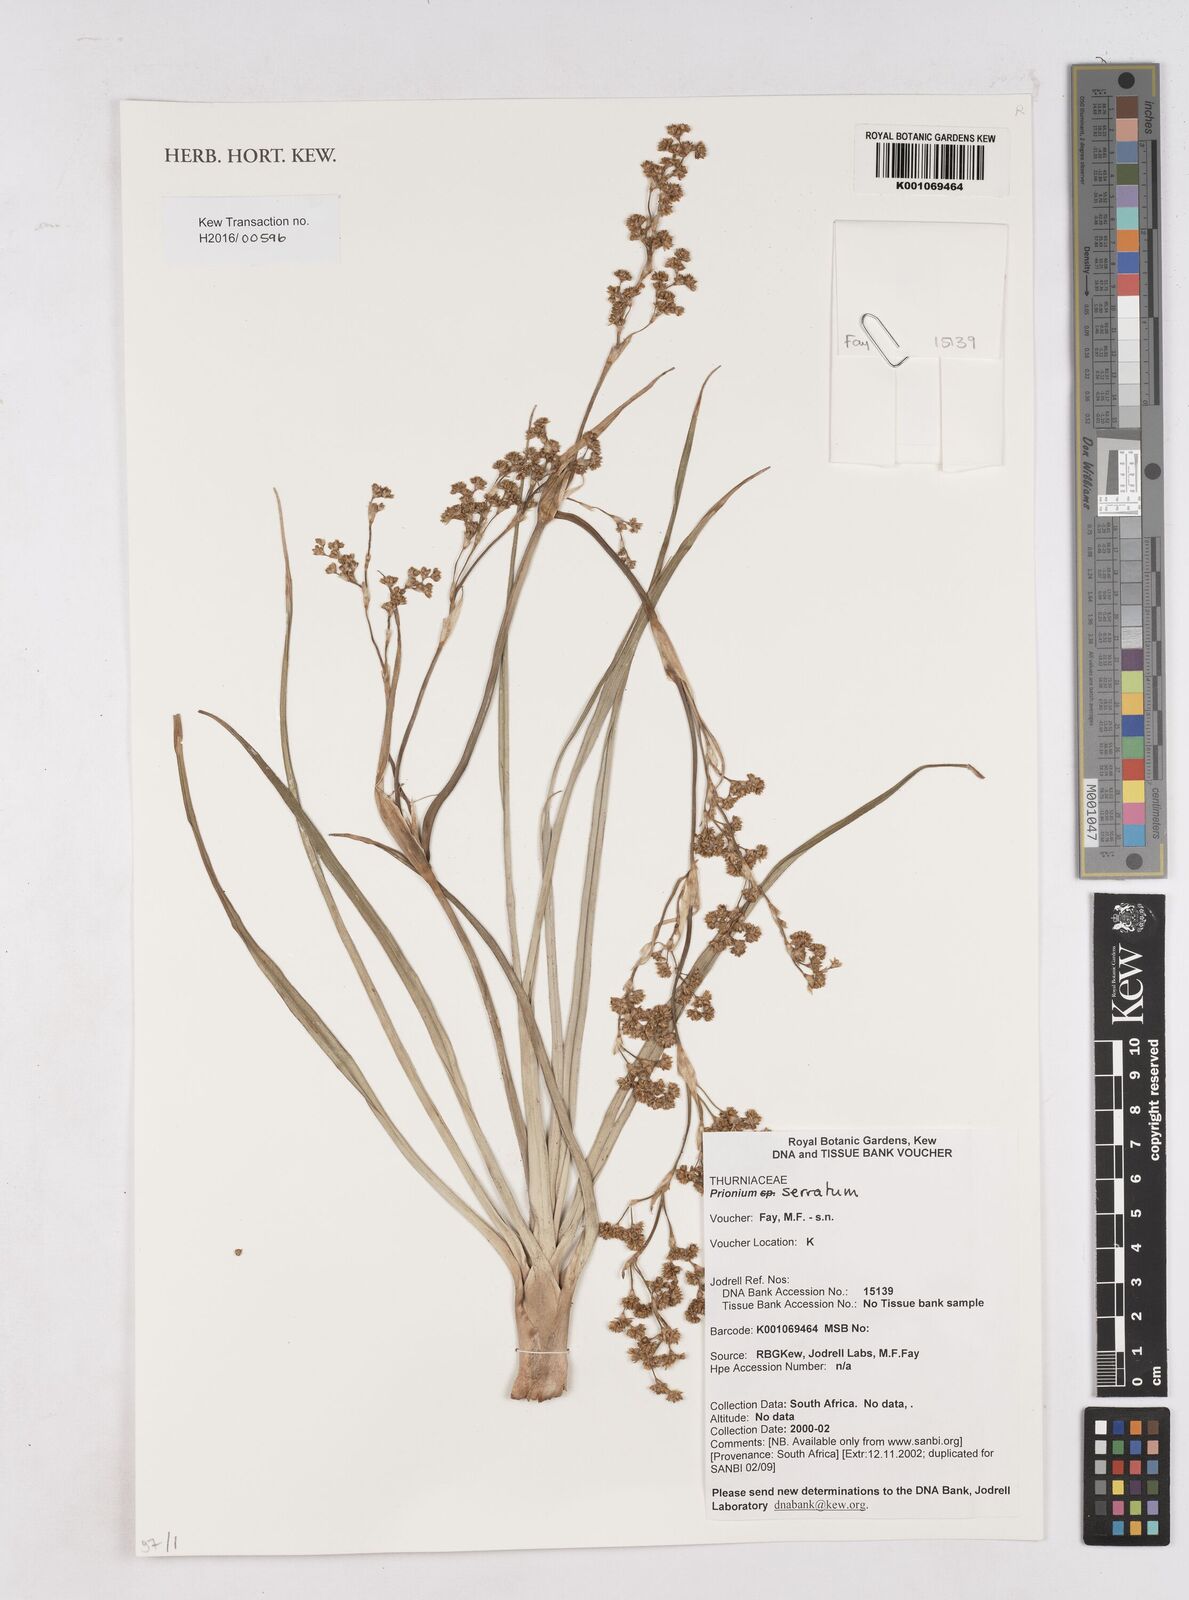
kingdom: Plantae
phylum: Tracheophyta
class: Liliopsida
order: Poales
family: Thurniaceae
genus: Prionium
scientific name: Prionium serratum
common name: Palmiet
